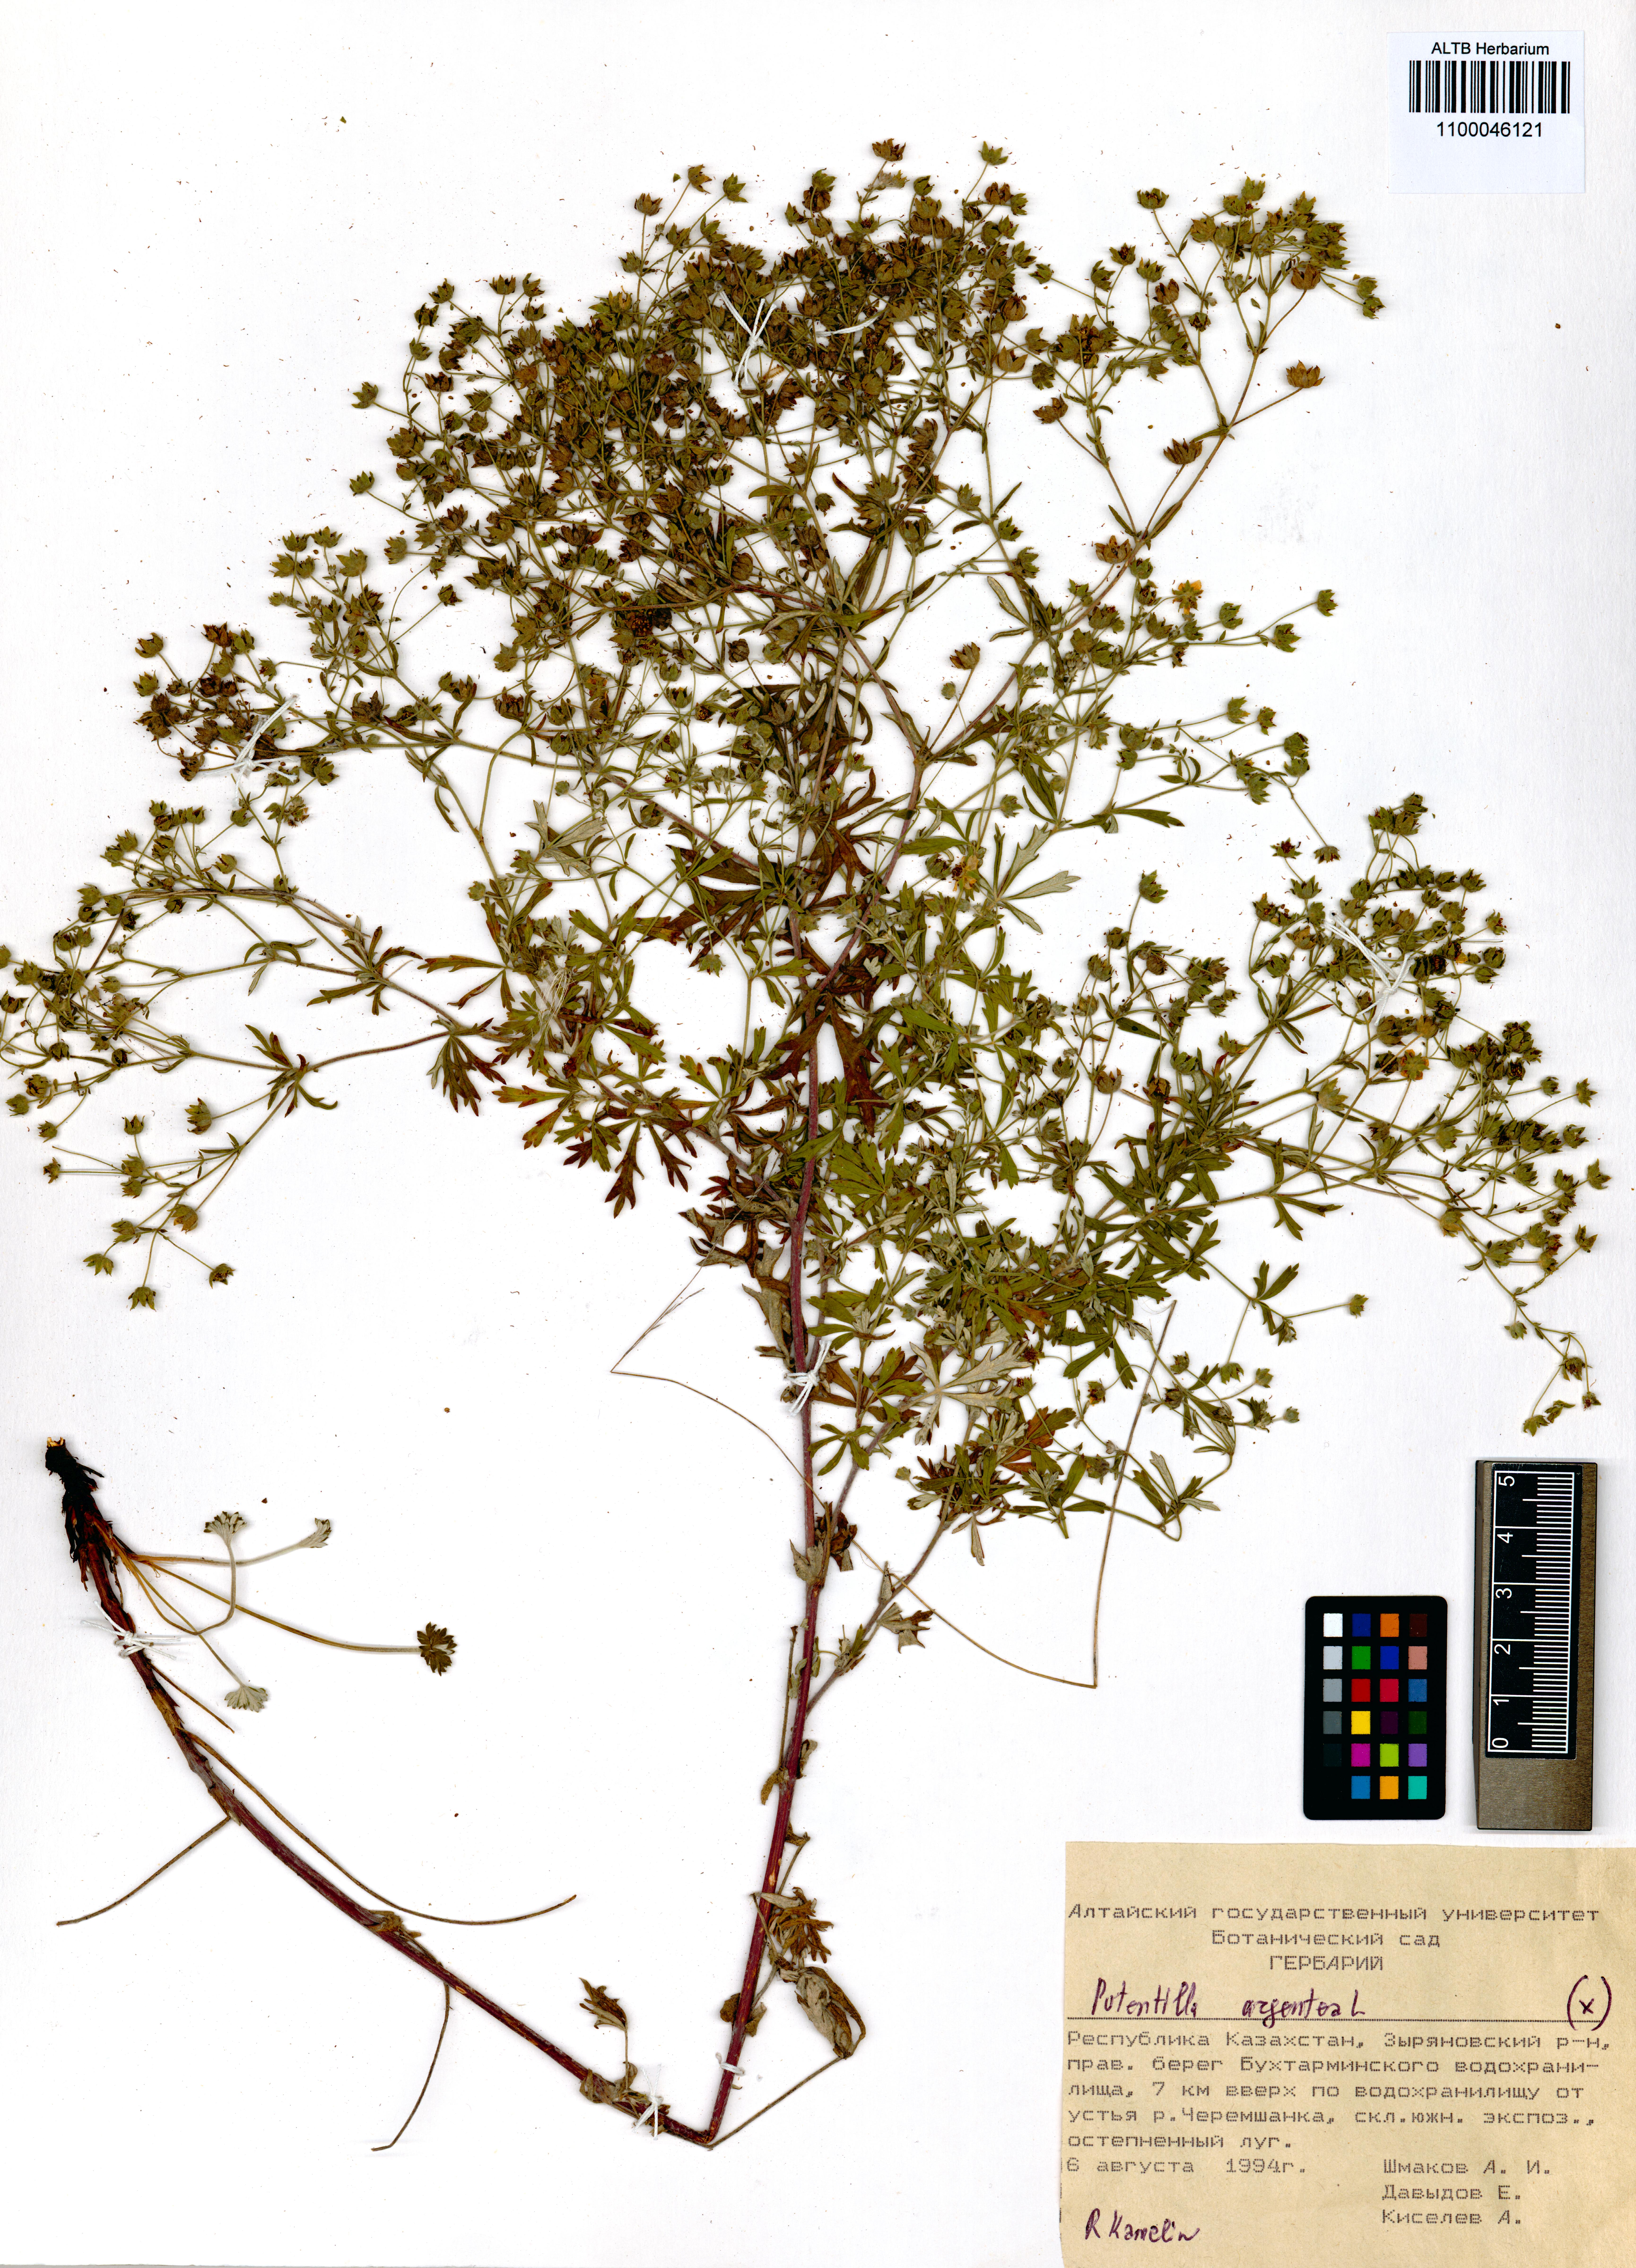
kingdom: Plantae
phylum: Tracheophyta
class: Magnoliopsida
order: Rosales
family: Rosaceae
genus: Potentilla
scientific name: Potentilla argentea
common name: Hoary cinquefoil
